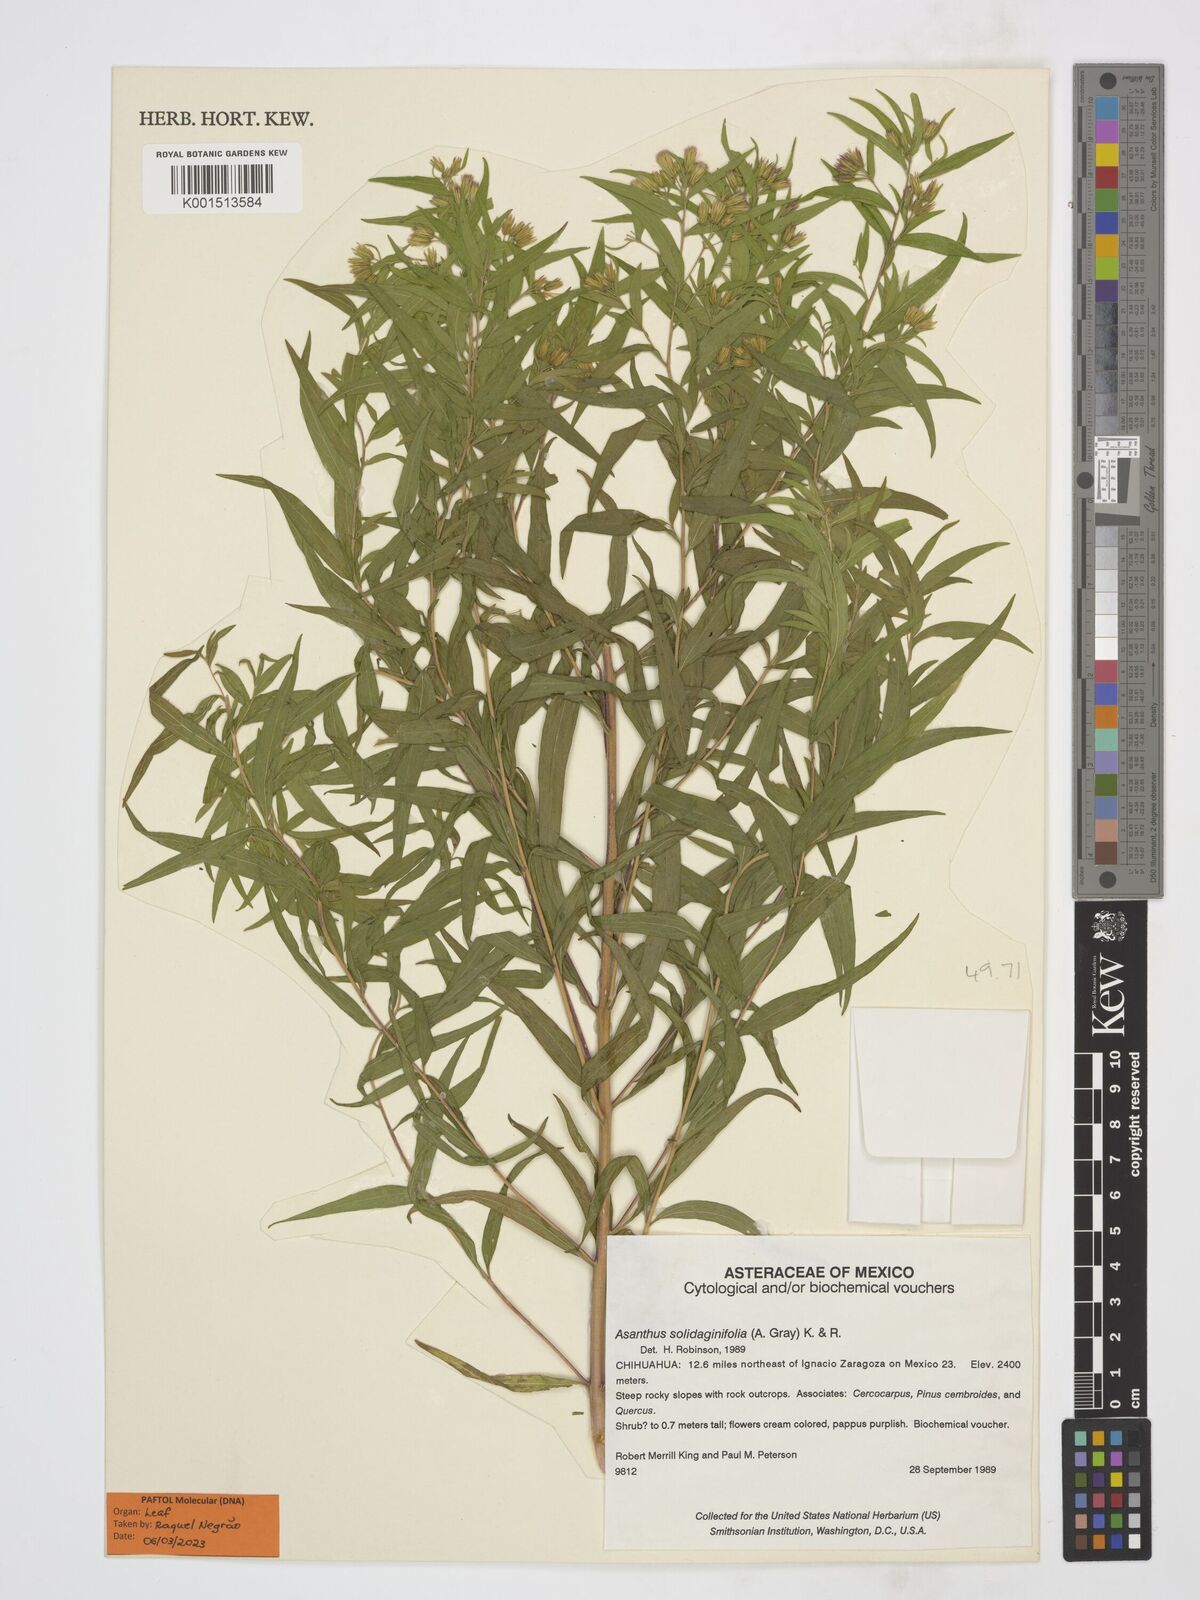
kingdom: Plantae
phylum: Tracheophyta
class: Magnoliopsida
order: Asterales
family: Asteraceae
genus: Asanthus
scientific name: Asanthus solidaginifolius
